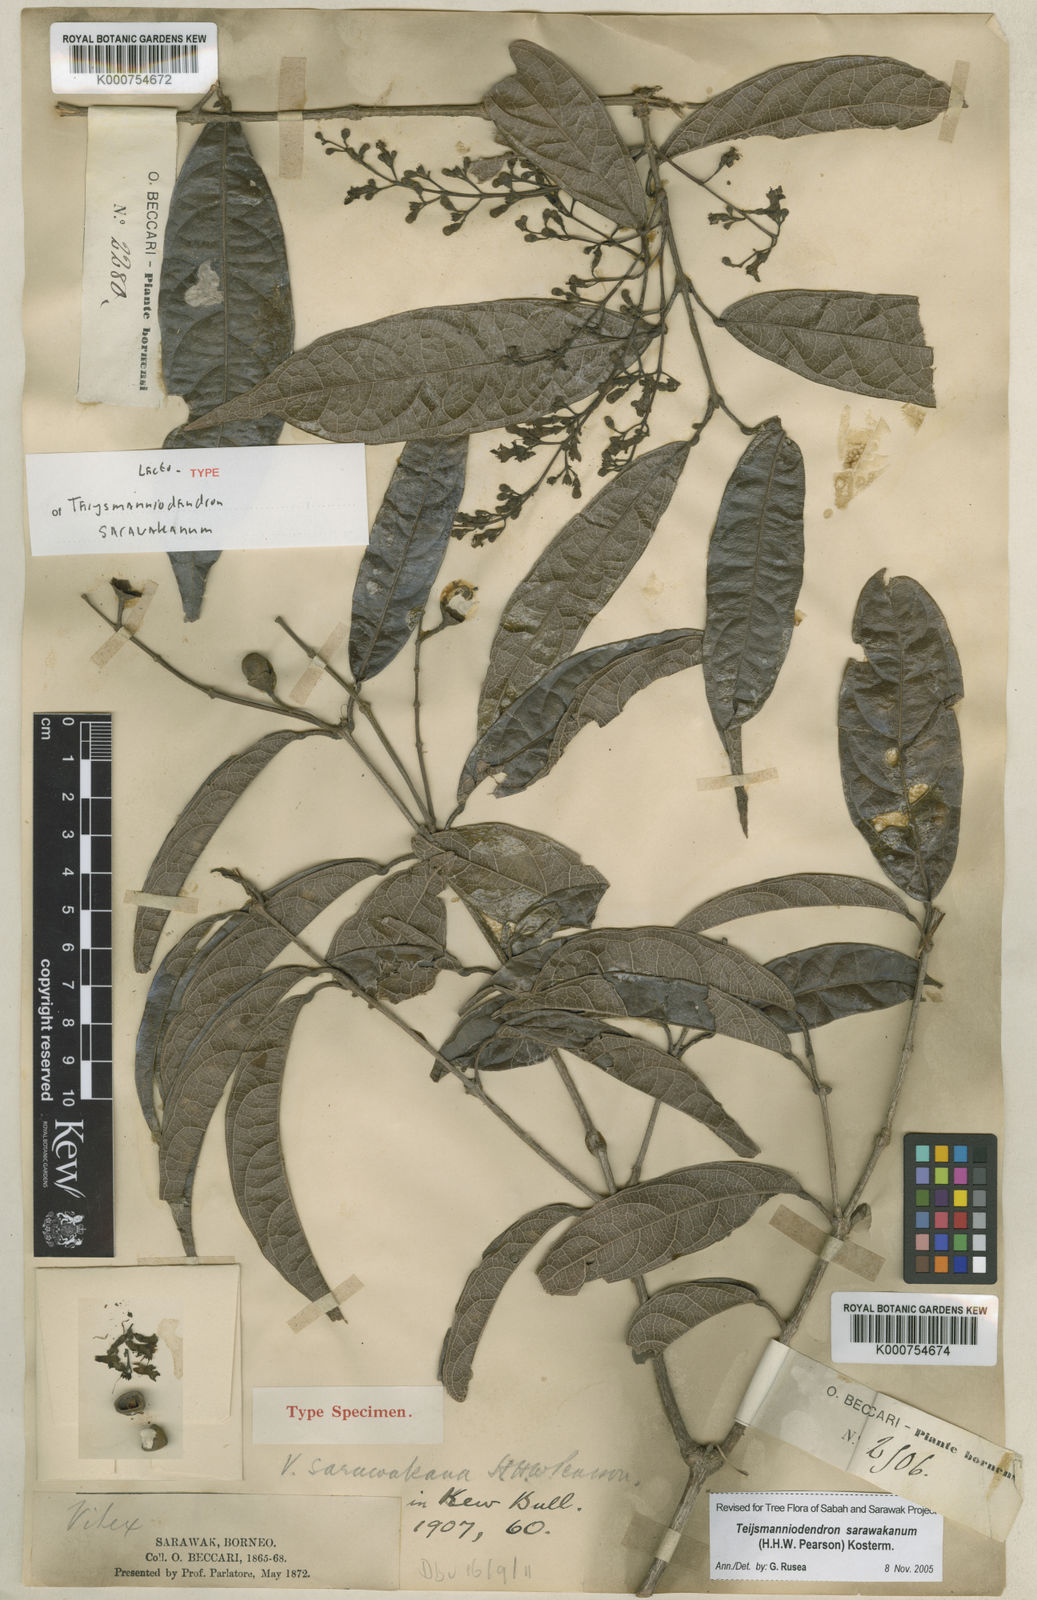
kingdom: Plantae
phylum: Tracheophyta
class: Magnoliopsida
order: Lamiales
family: Lamiaceae
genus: Teijsmanniodendron
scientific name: Teijsmanniodendron sarawakanum
